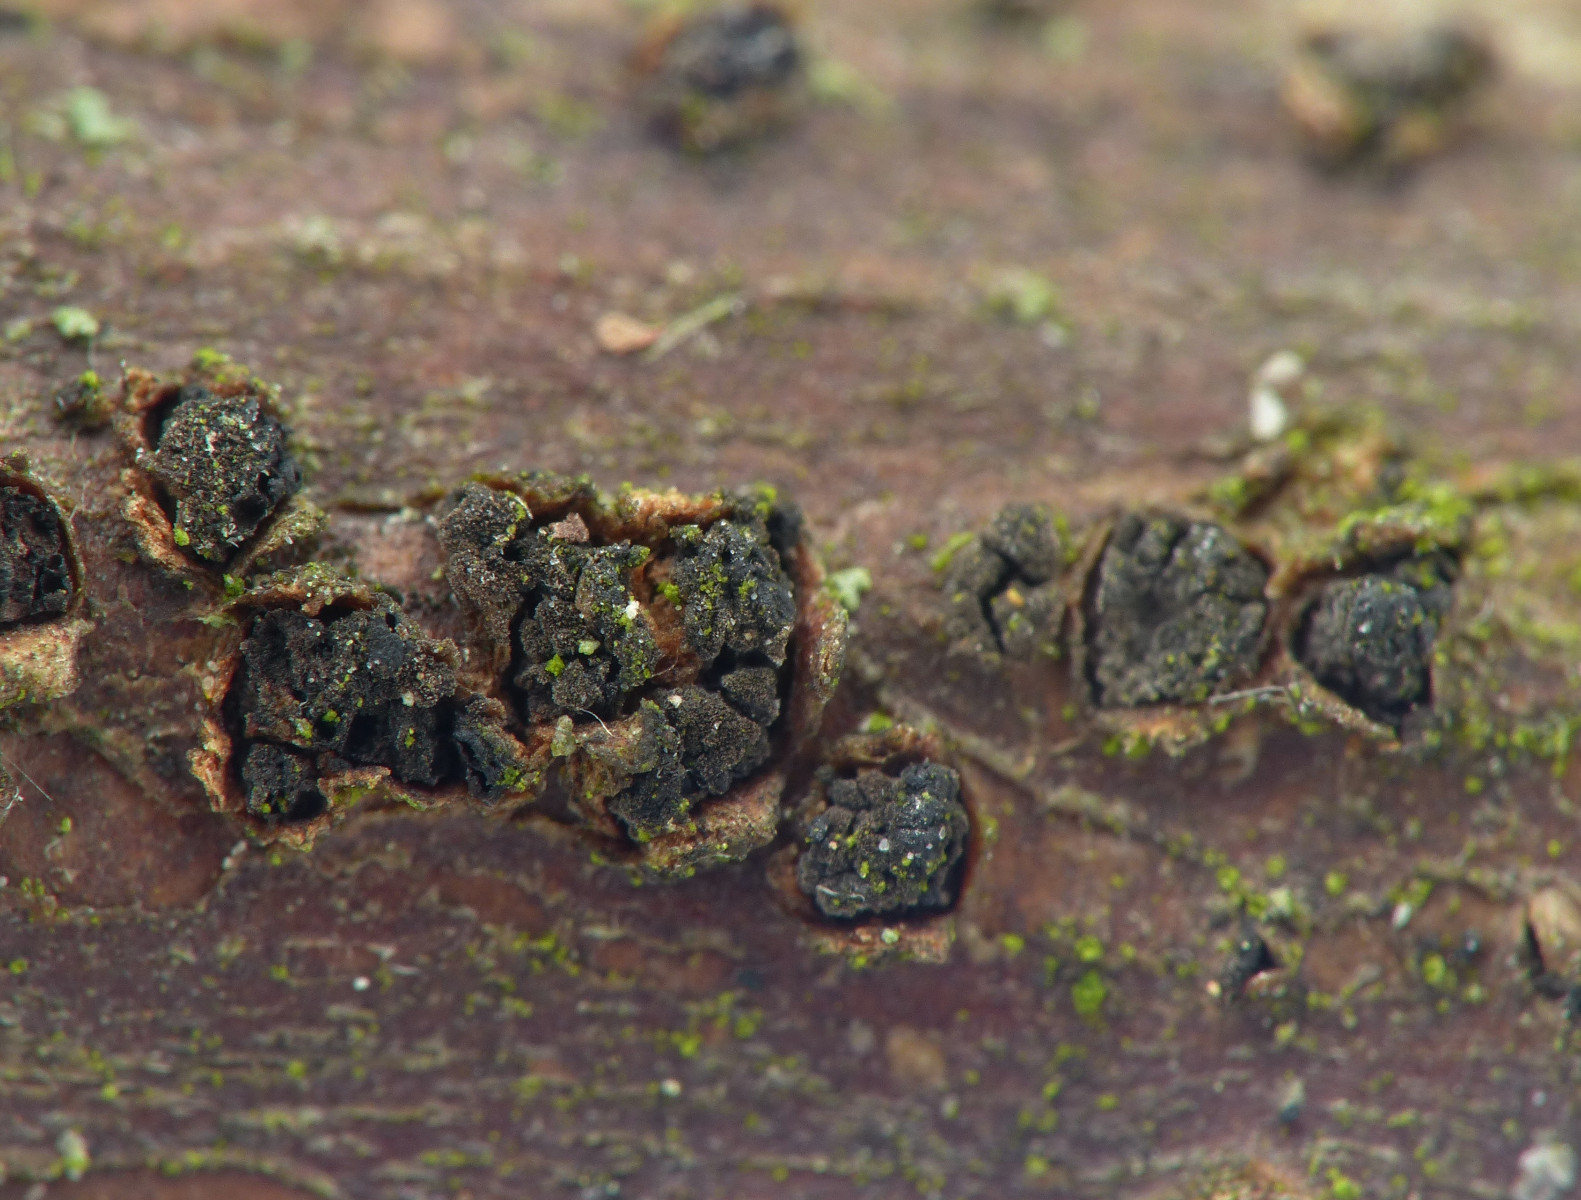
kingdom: Fungi
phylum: Ascomycota
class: Dothideomycetes
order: Pleosporales
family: Massariaceae
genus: Massaria
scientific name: Massaria anomia
